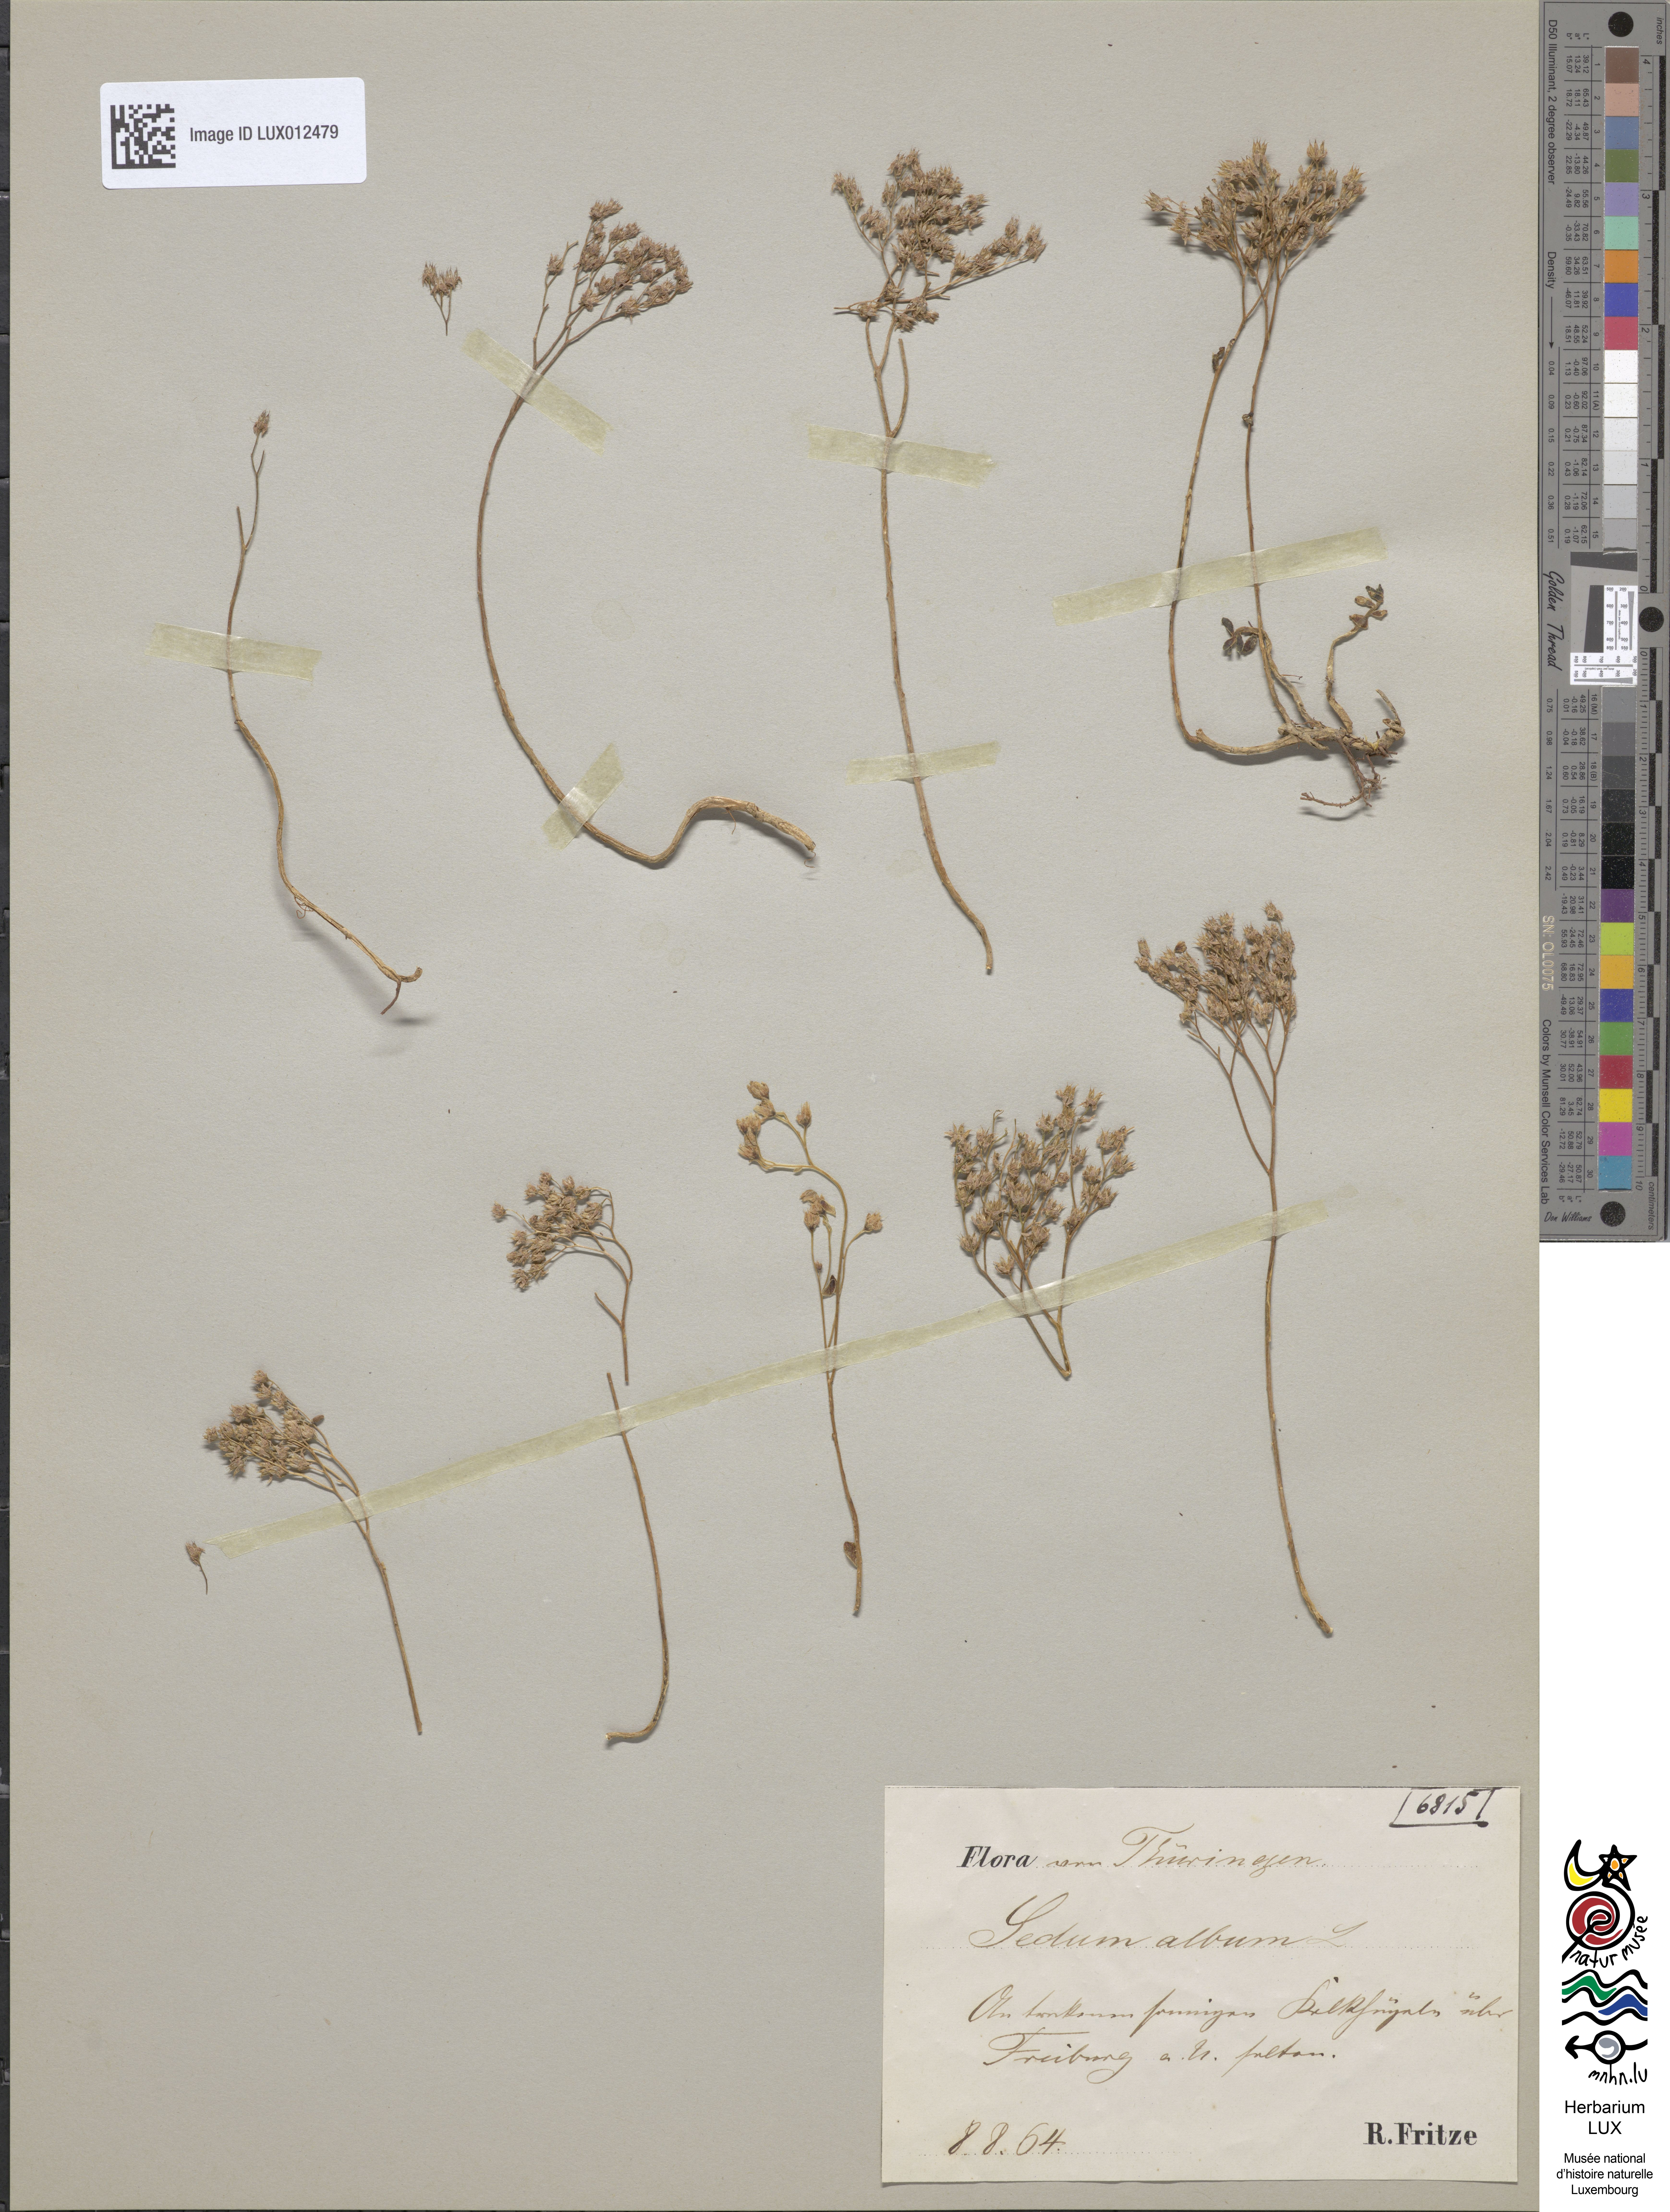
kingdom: Plantae
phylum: Tracheophyta
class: Magnoliopsida
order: Saxifragales
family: Crassulaceae
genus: Sedum
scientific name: Sedum album
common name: White stonecrop
